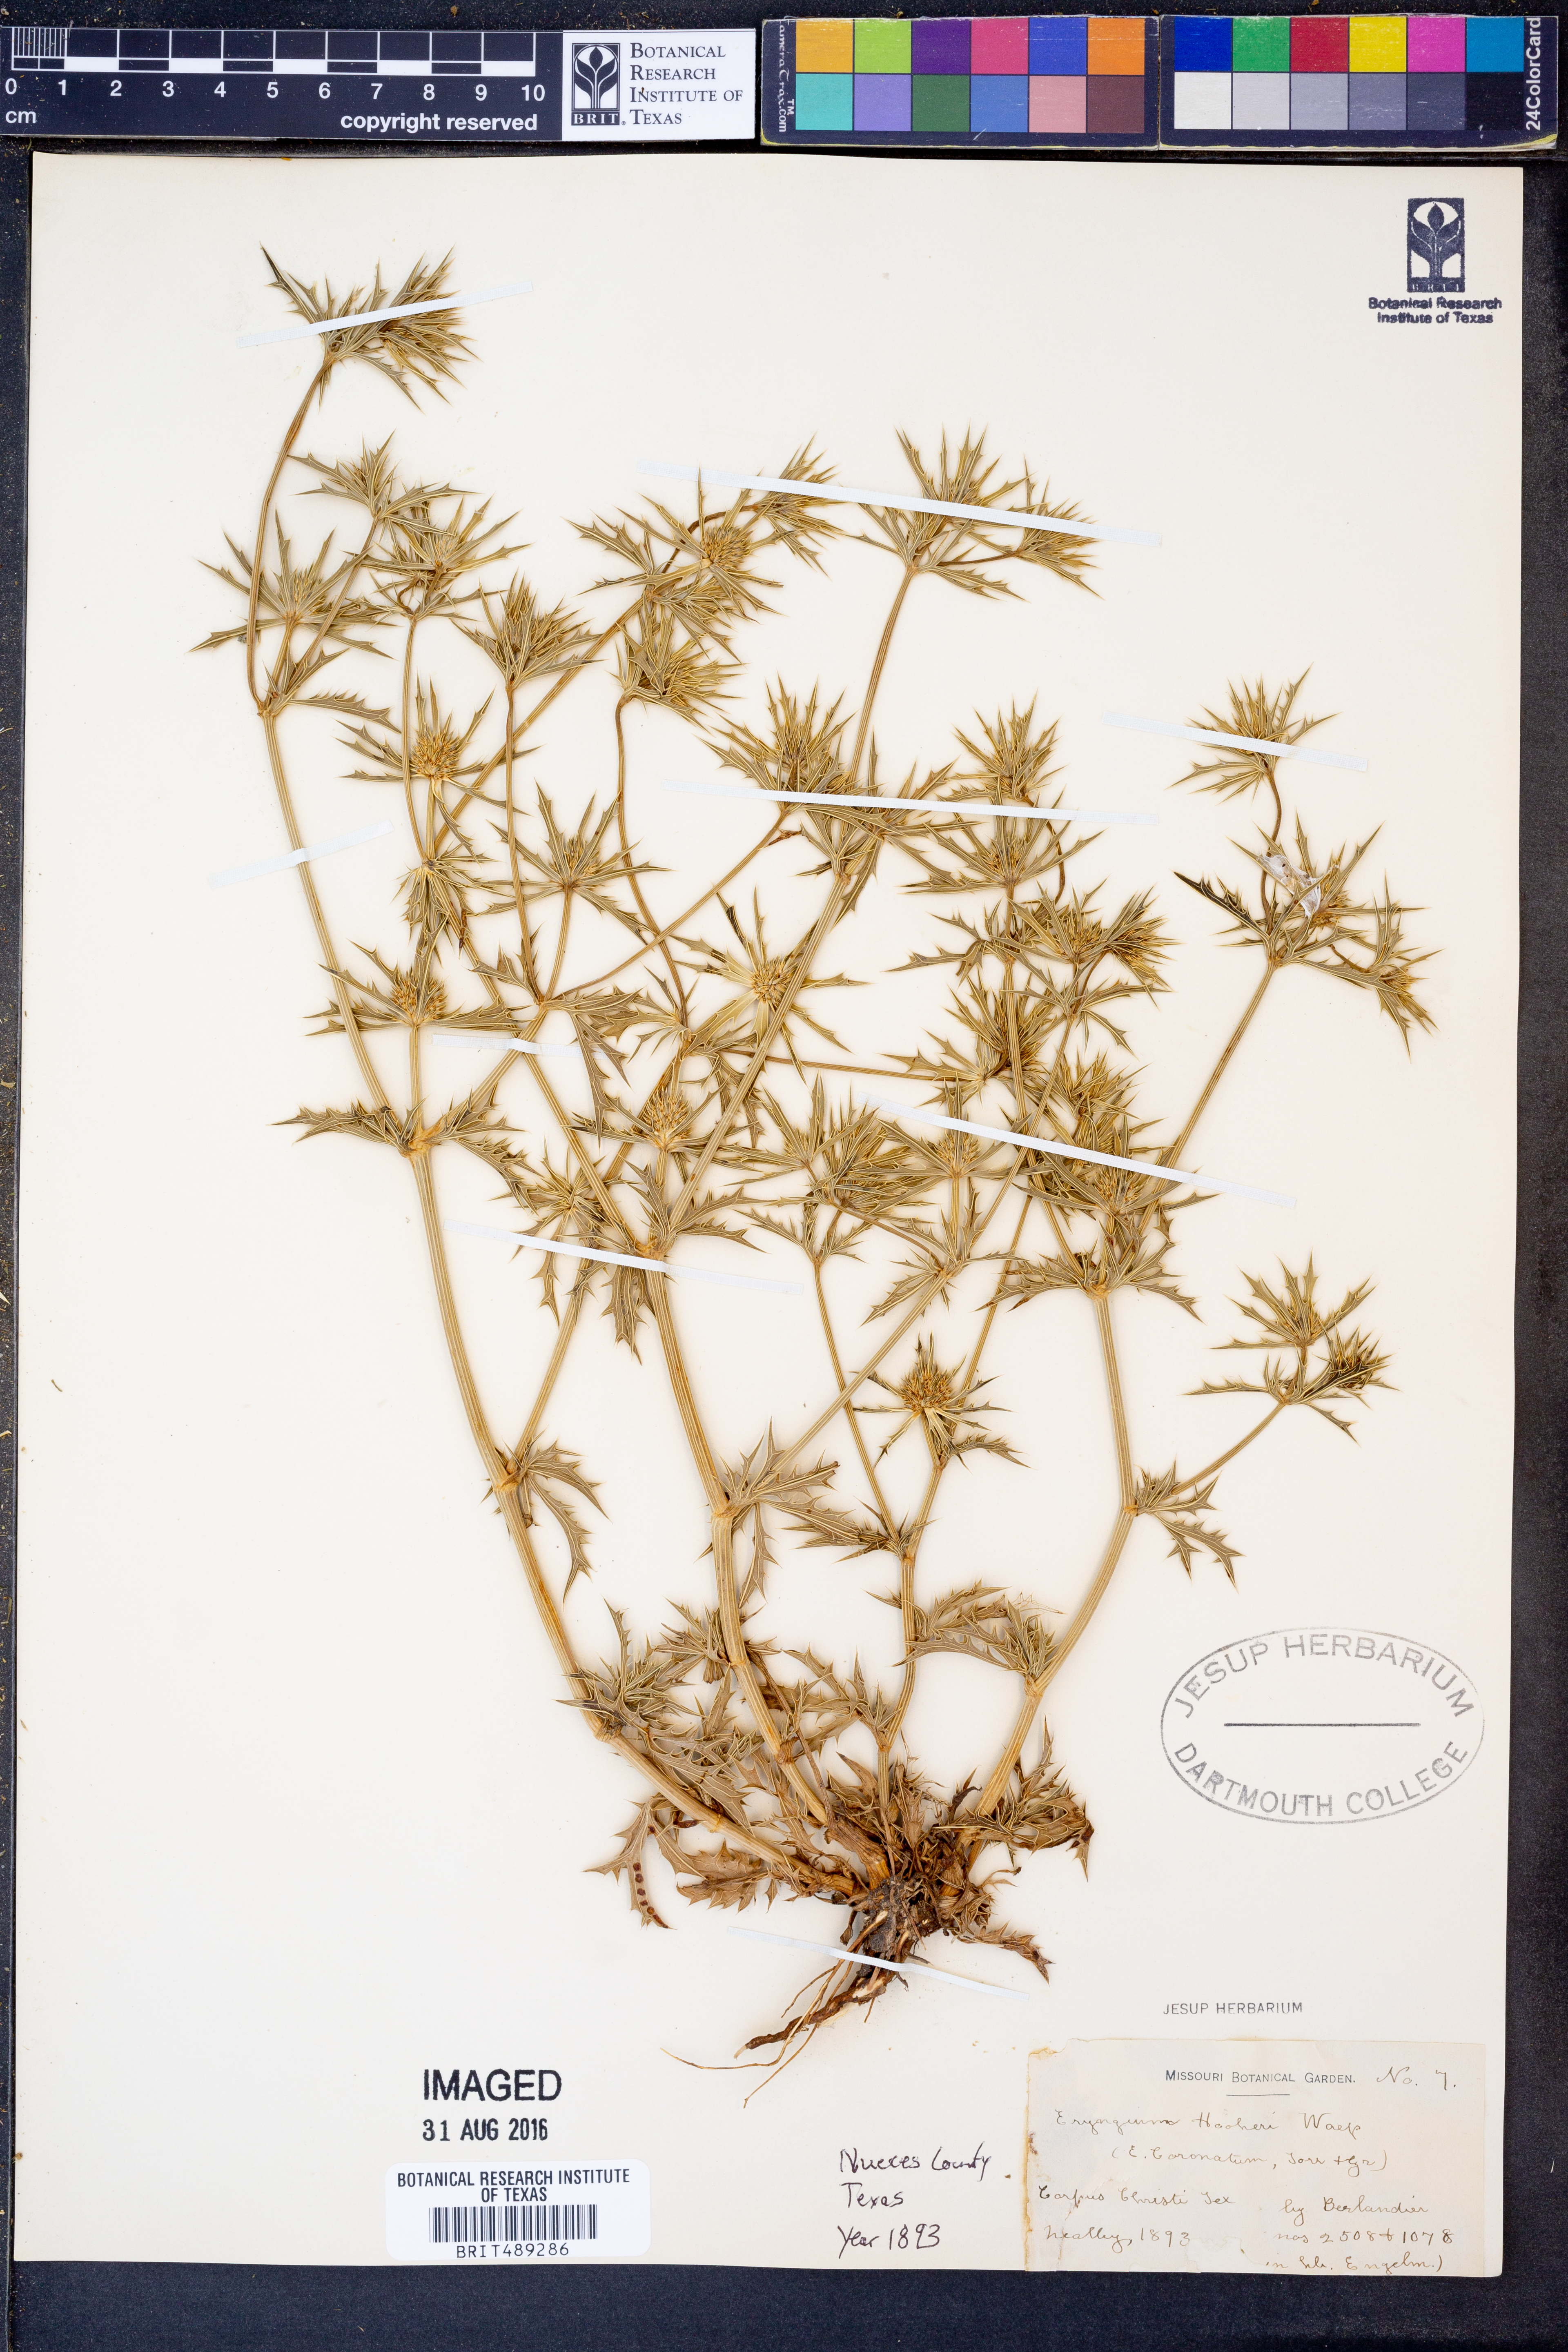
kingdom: Plantae
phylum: Tracheophyta
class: Magnoliopsida
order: Apiales
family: Apiaceae
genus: Eryngium
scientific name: Eryngium hookeri
